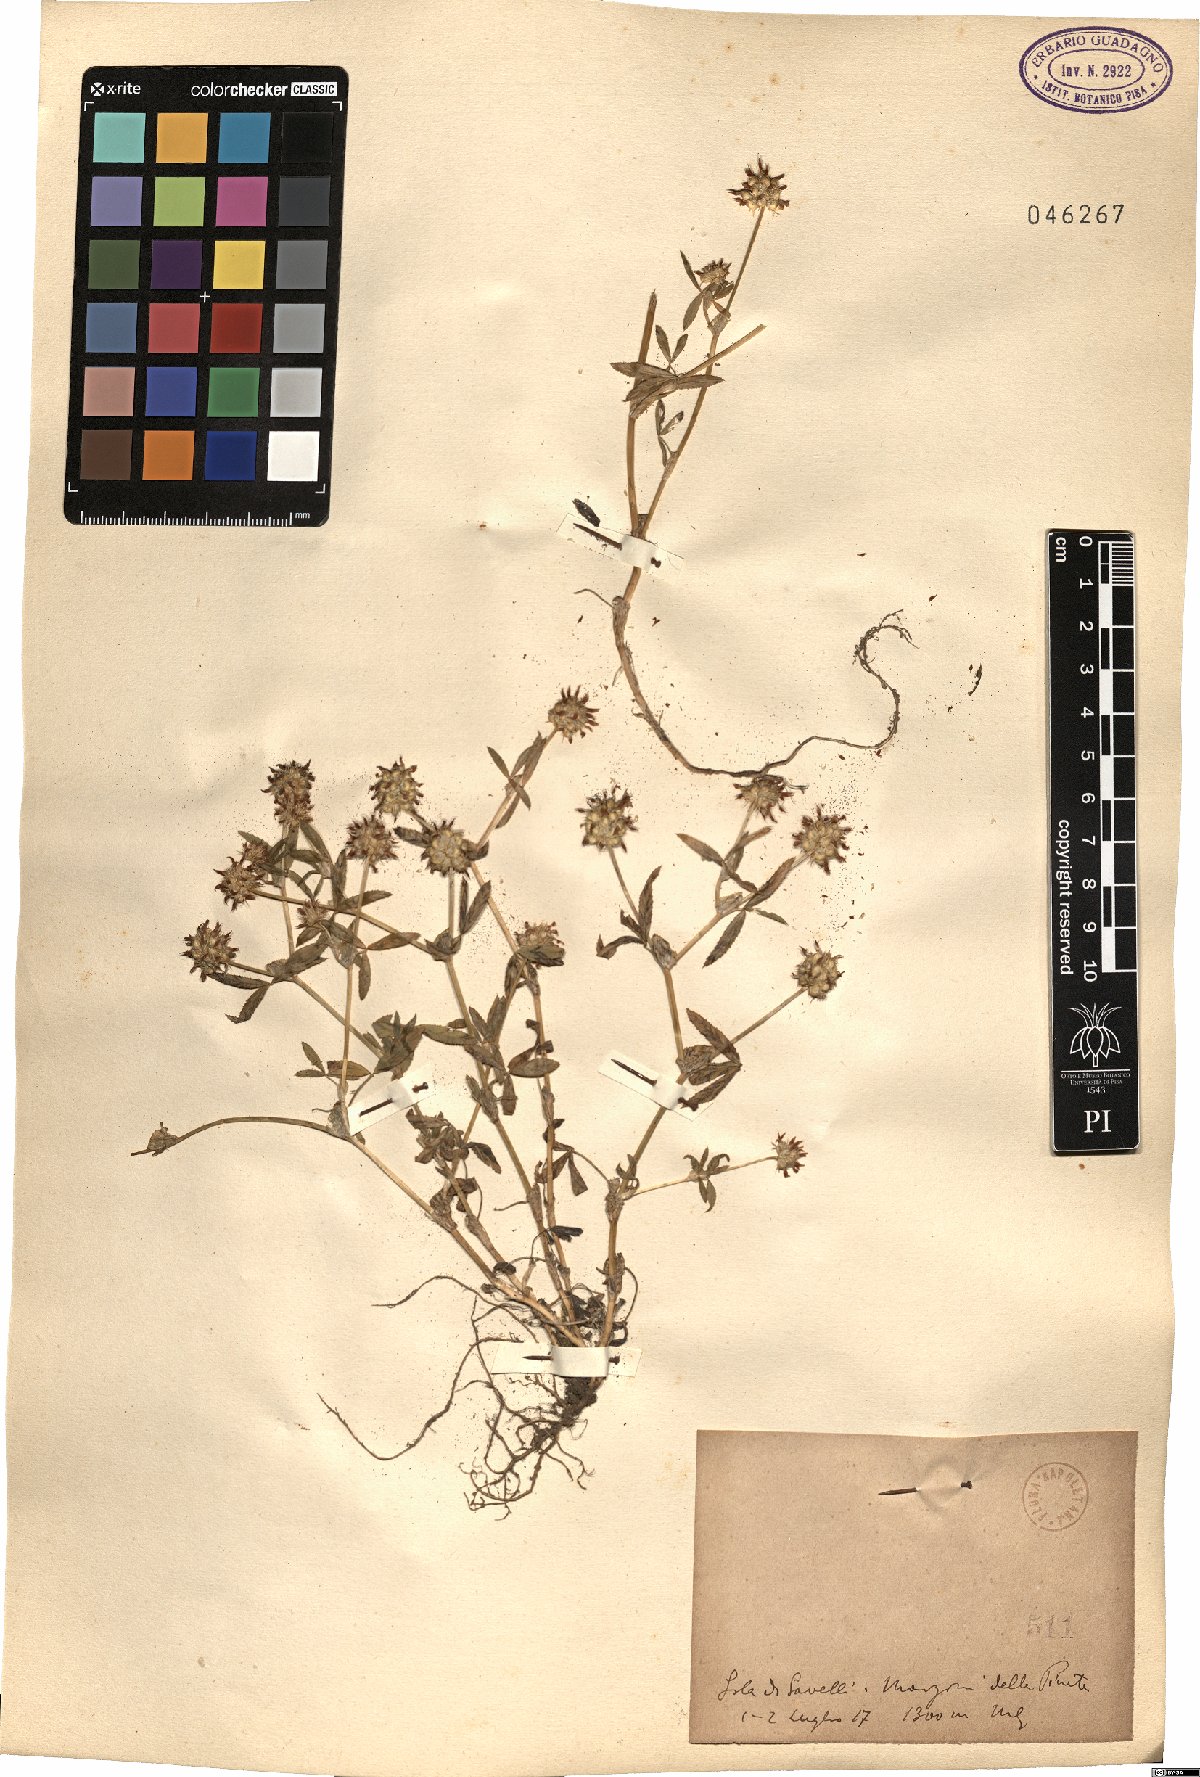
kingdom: Plantae
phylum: Tracheophyta
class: Magnoliopsida
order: Fabales
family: Fabaceae
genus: Trifolium
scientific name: Trifolium
